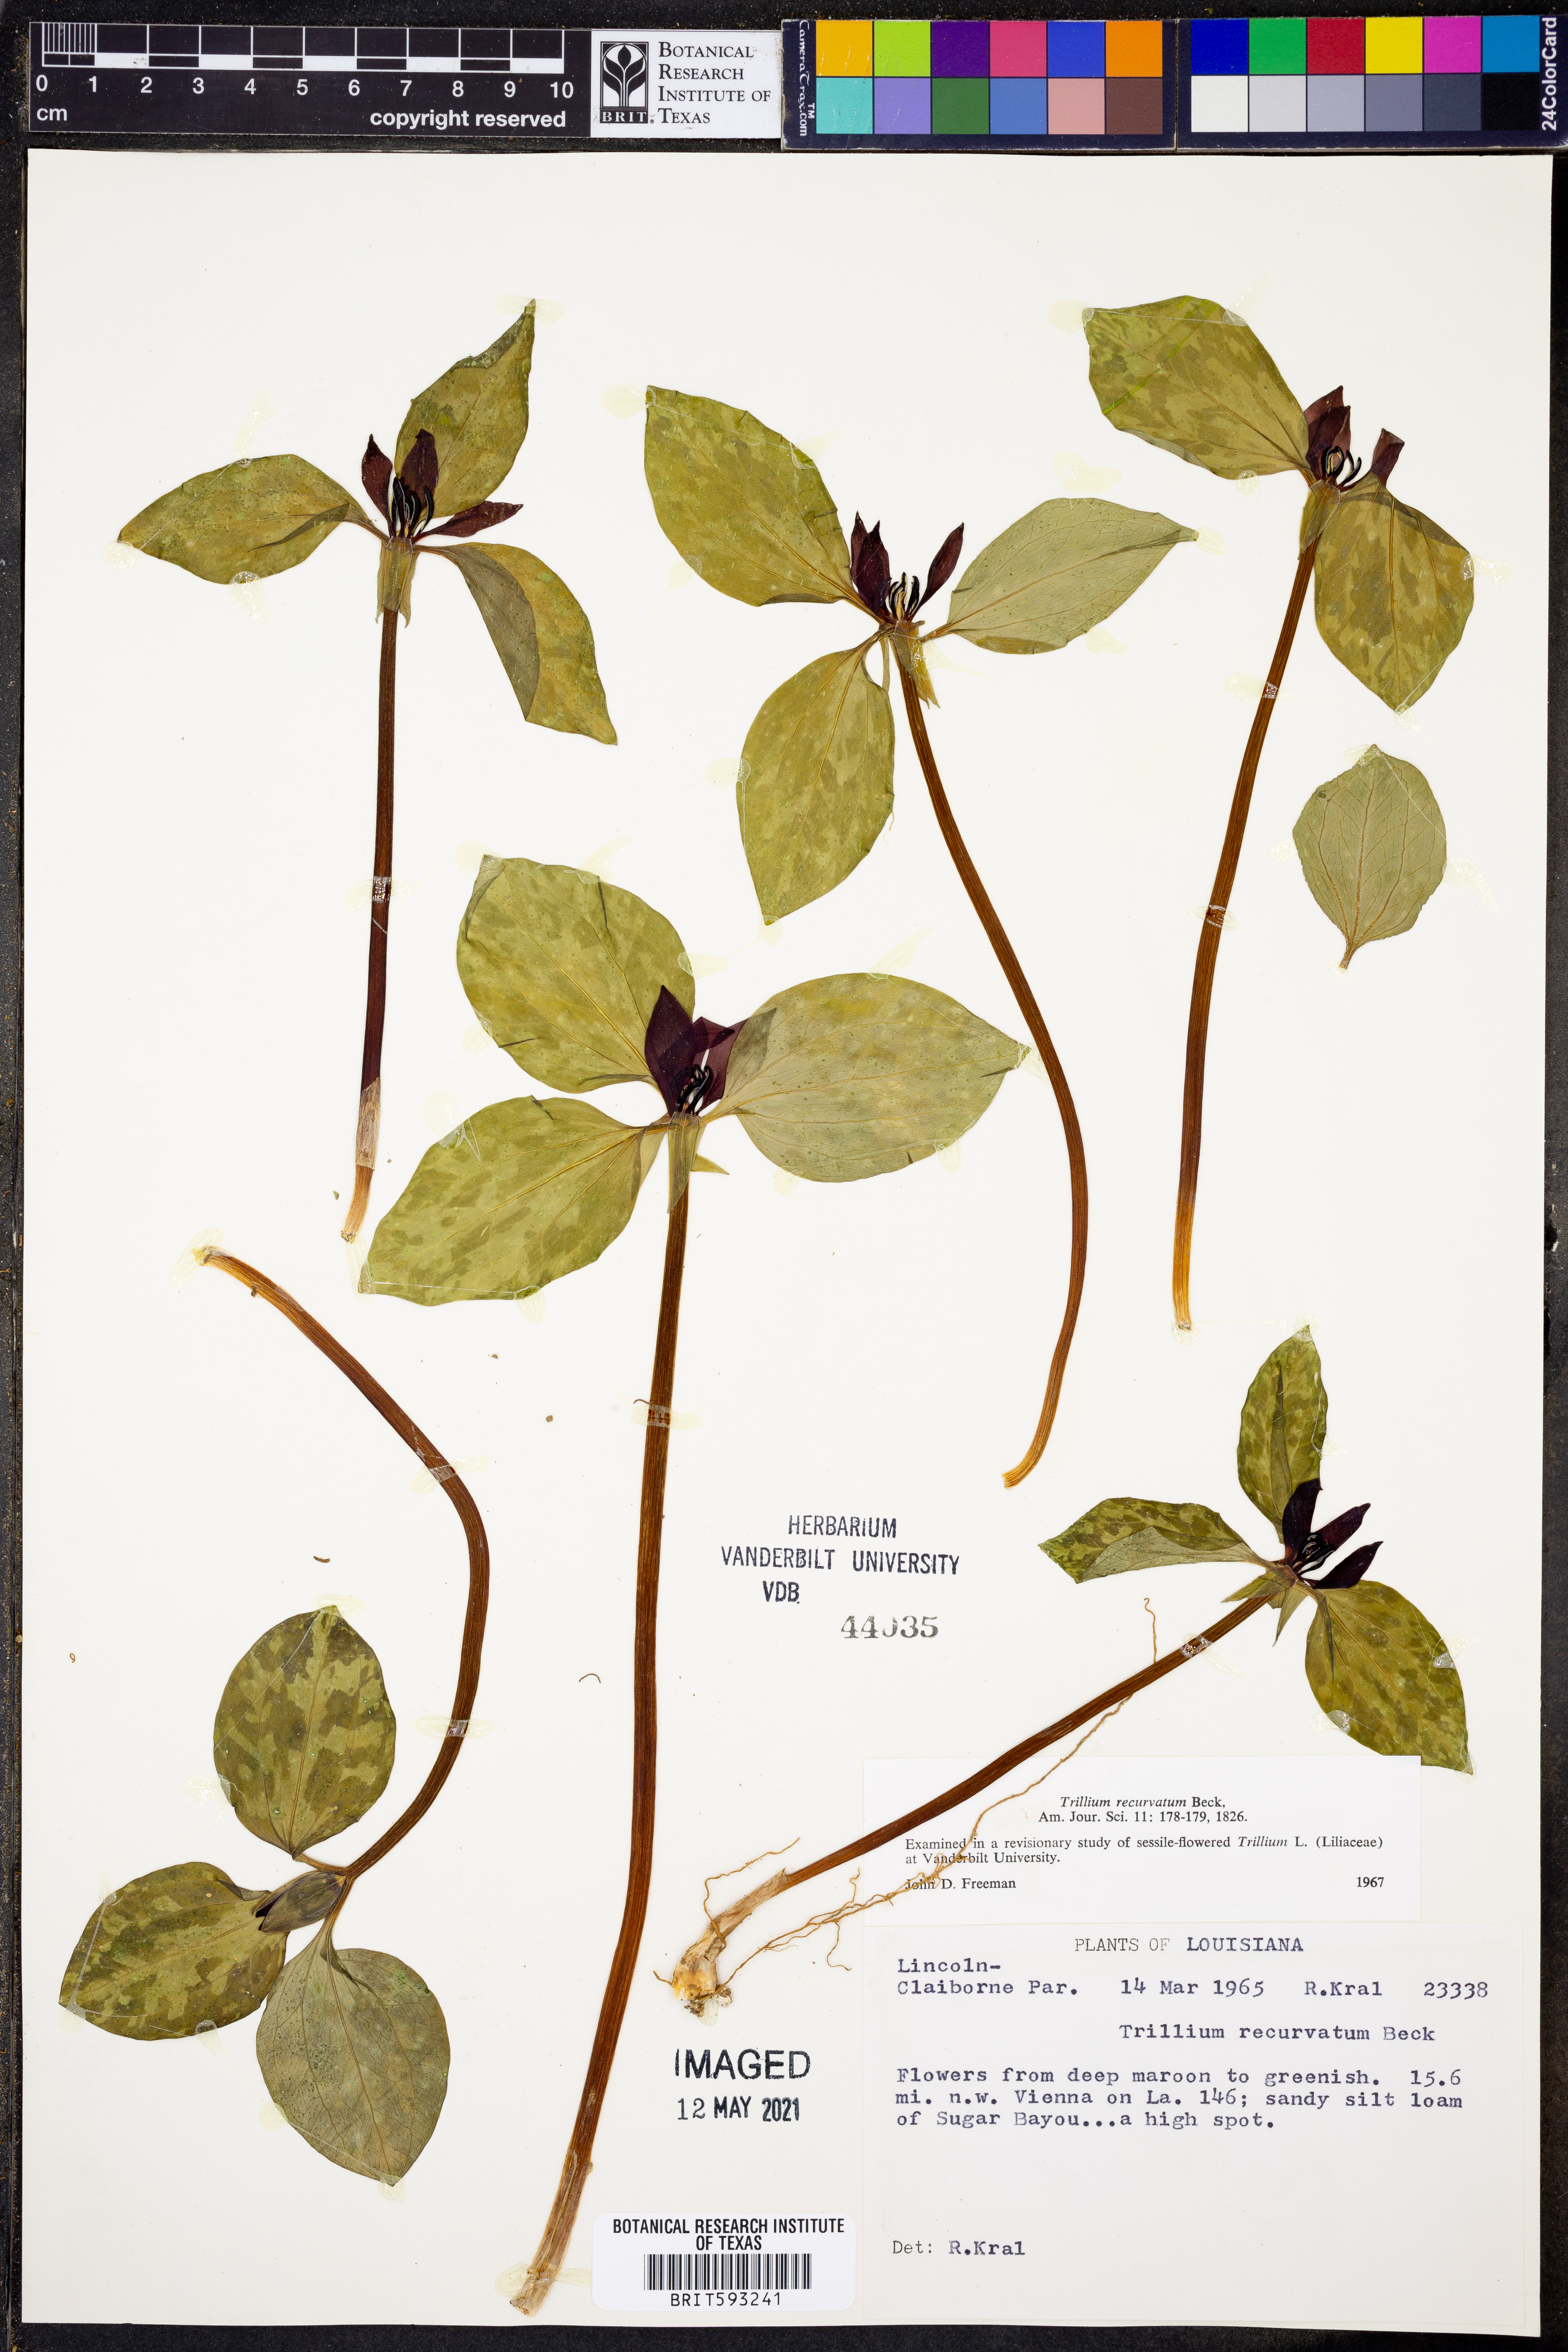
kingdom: Plantae
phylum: Tracheophyta
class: Liliopsida
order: Liliales
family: Melanthiaceae
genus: Trillium
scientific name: Trillium recurvatum
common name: Bloody butcher
